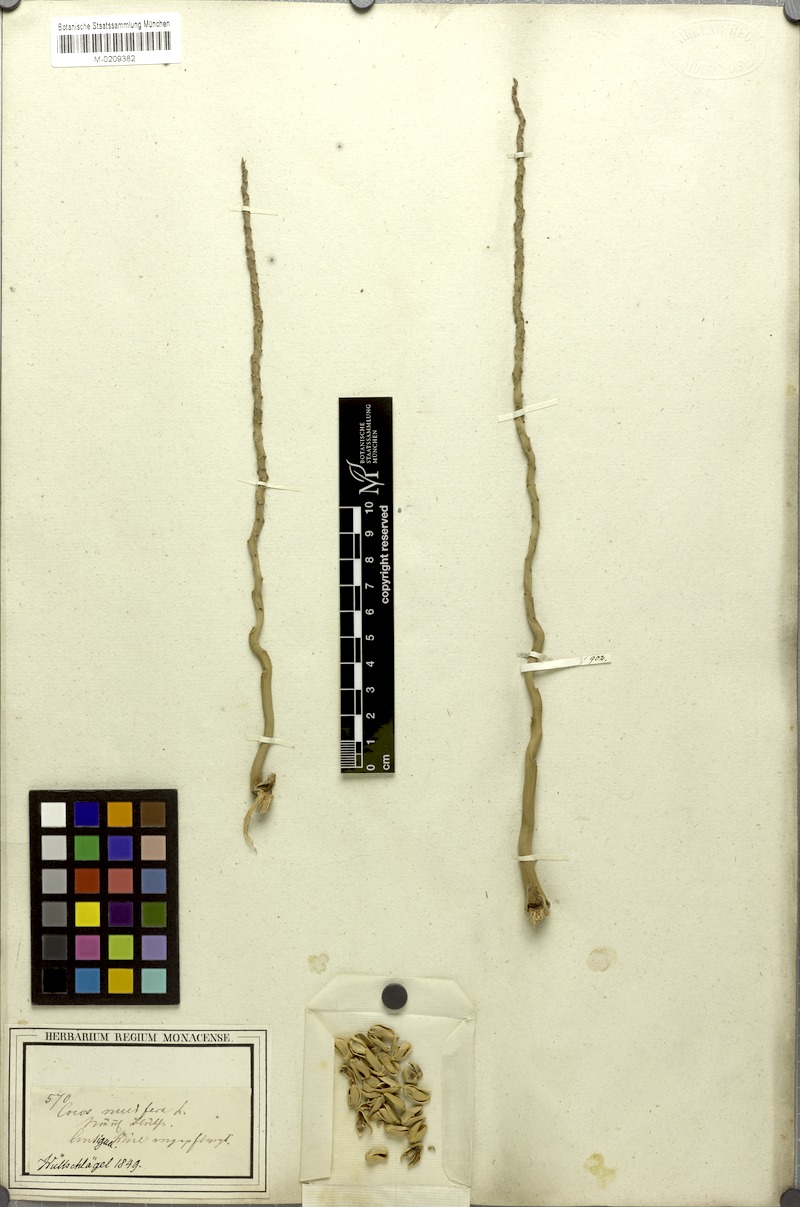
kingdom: Plantae
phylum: Tracheophyta
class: Liliopsida
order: Arecales
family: Arecaceae
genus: Cocos
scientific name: Cocos nucifera
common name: Coconut palm
